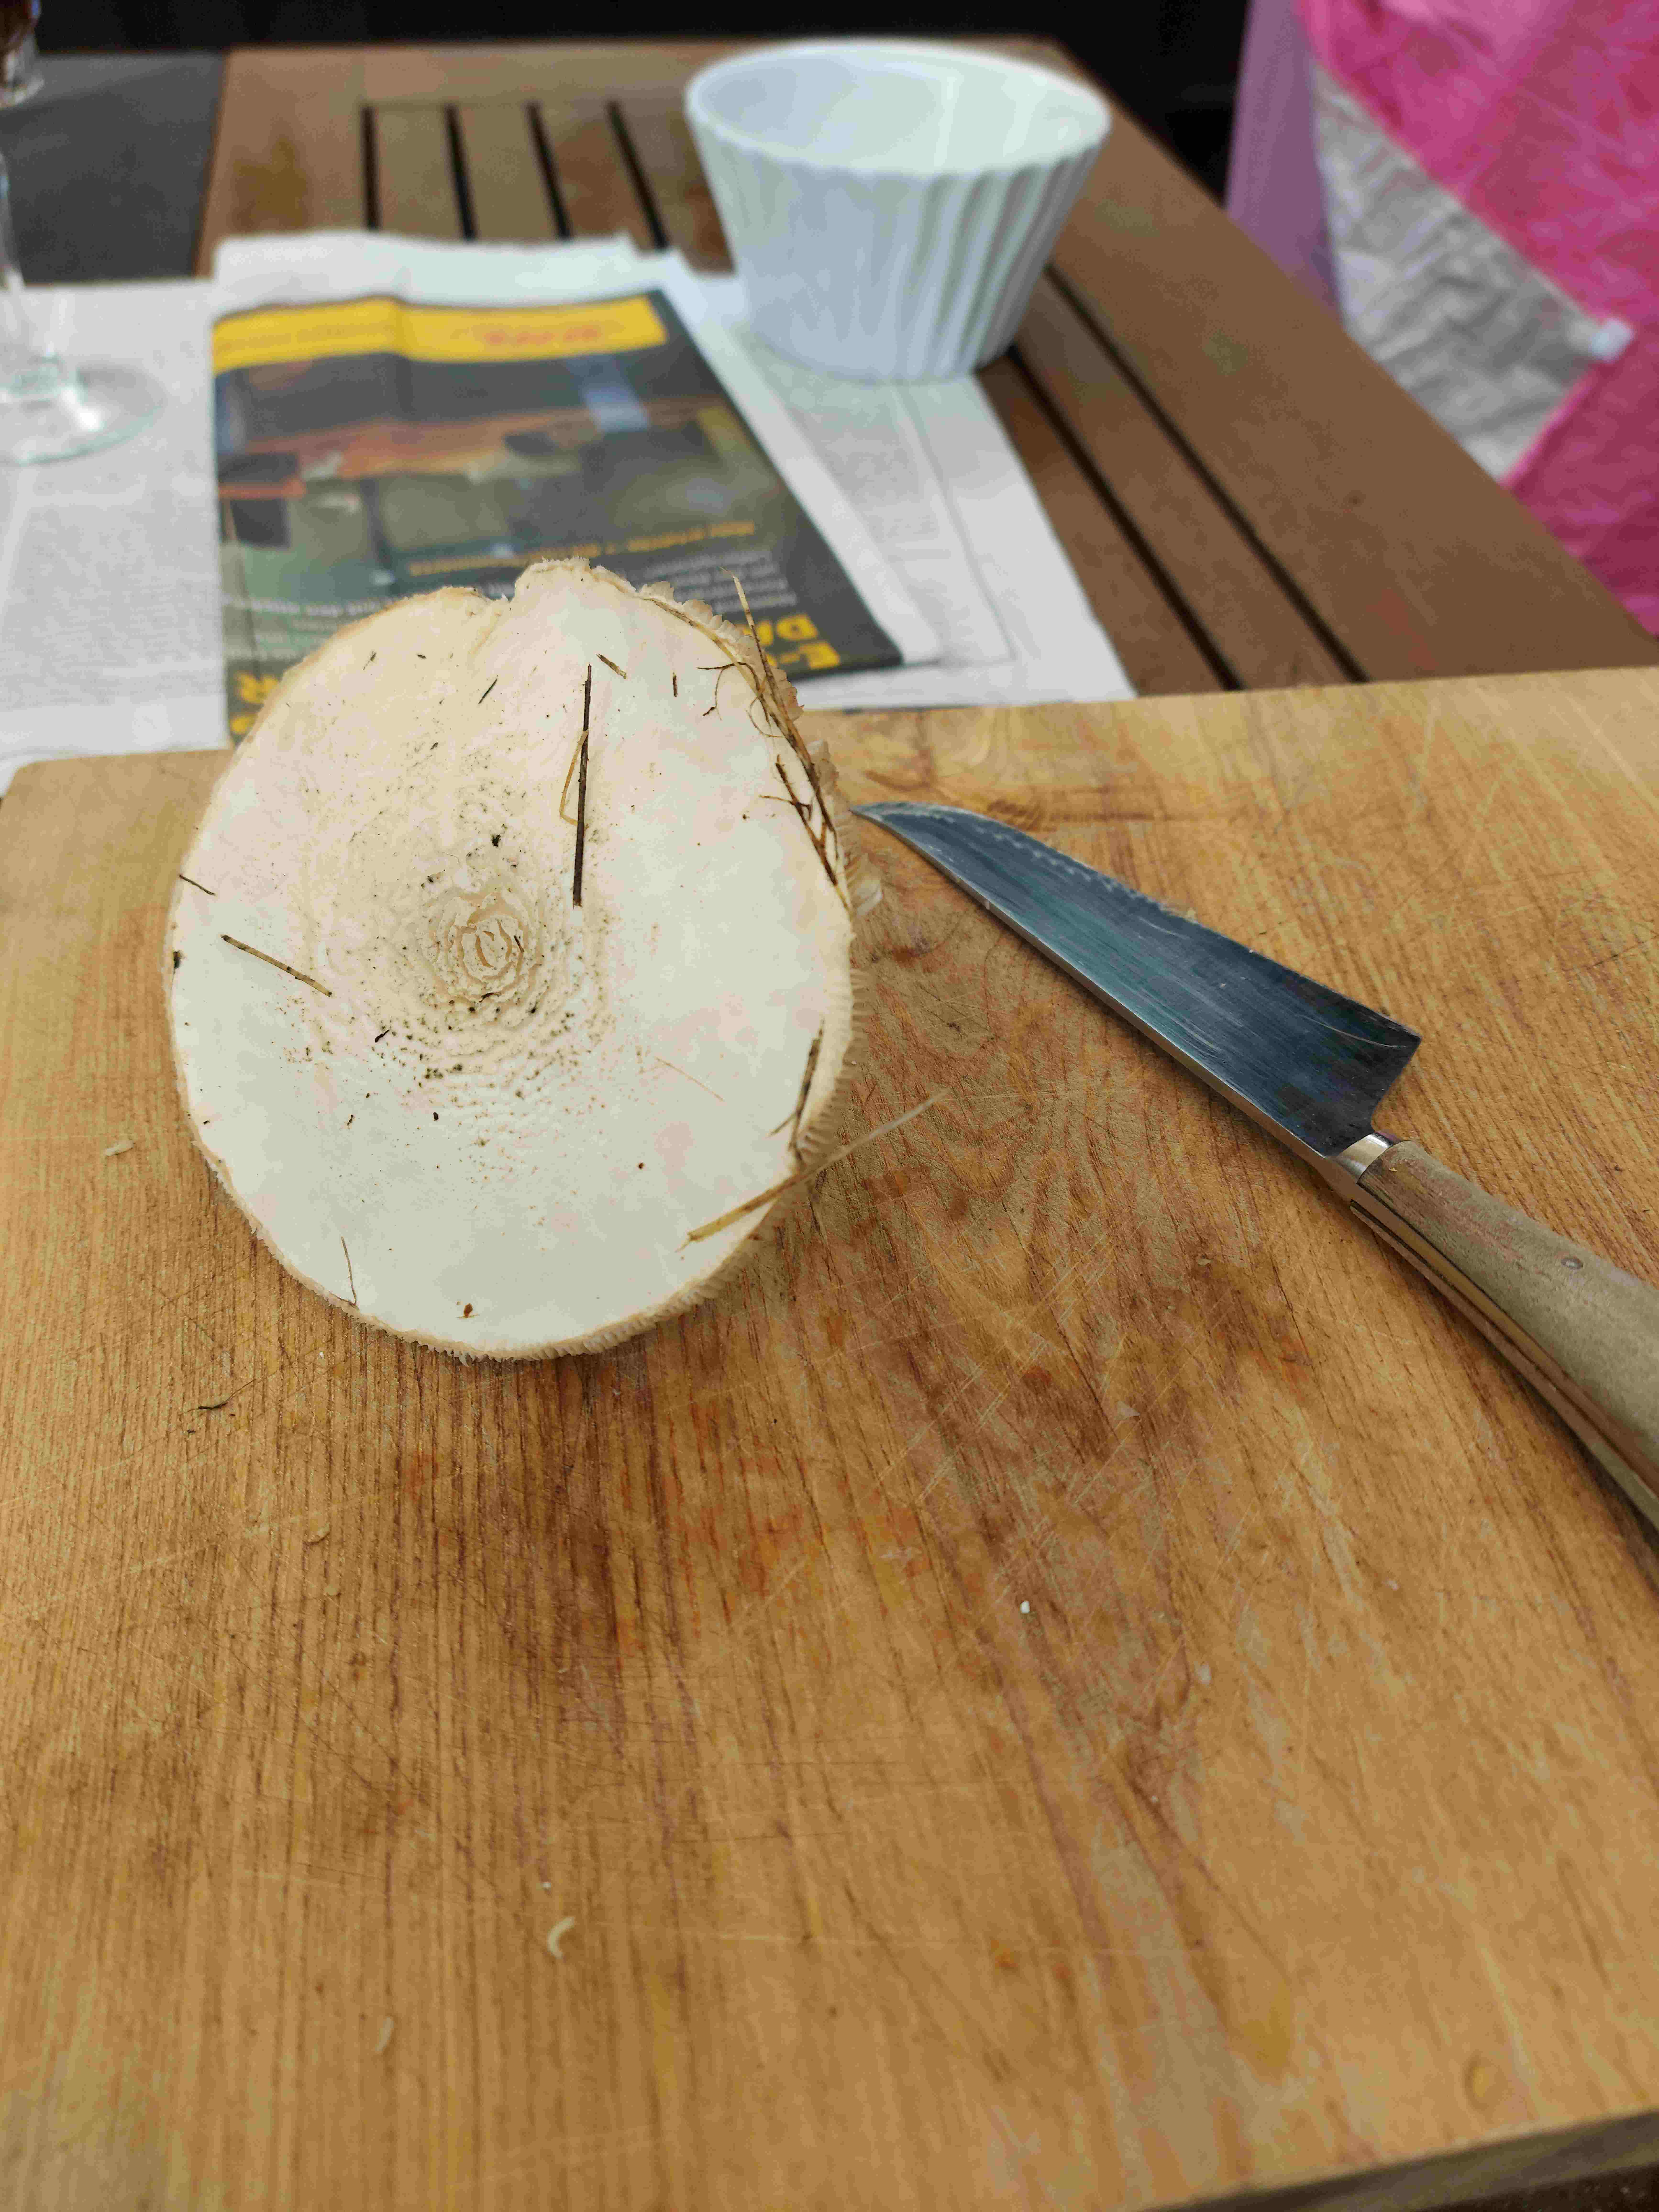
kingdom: Fungi
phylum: Basidiomycota
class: Agaricomycetes
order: Agaricales
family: Agaricaceae
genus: Leucoagaricus
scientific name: Leucoagaricus leucothites
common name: rosabladet silkehat
